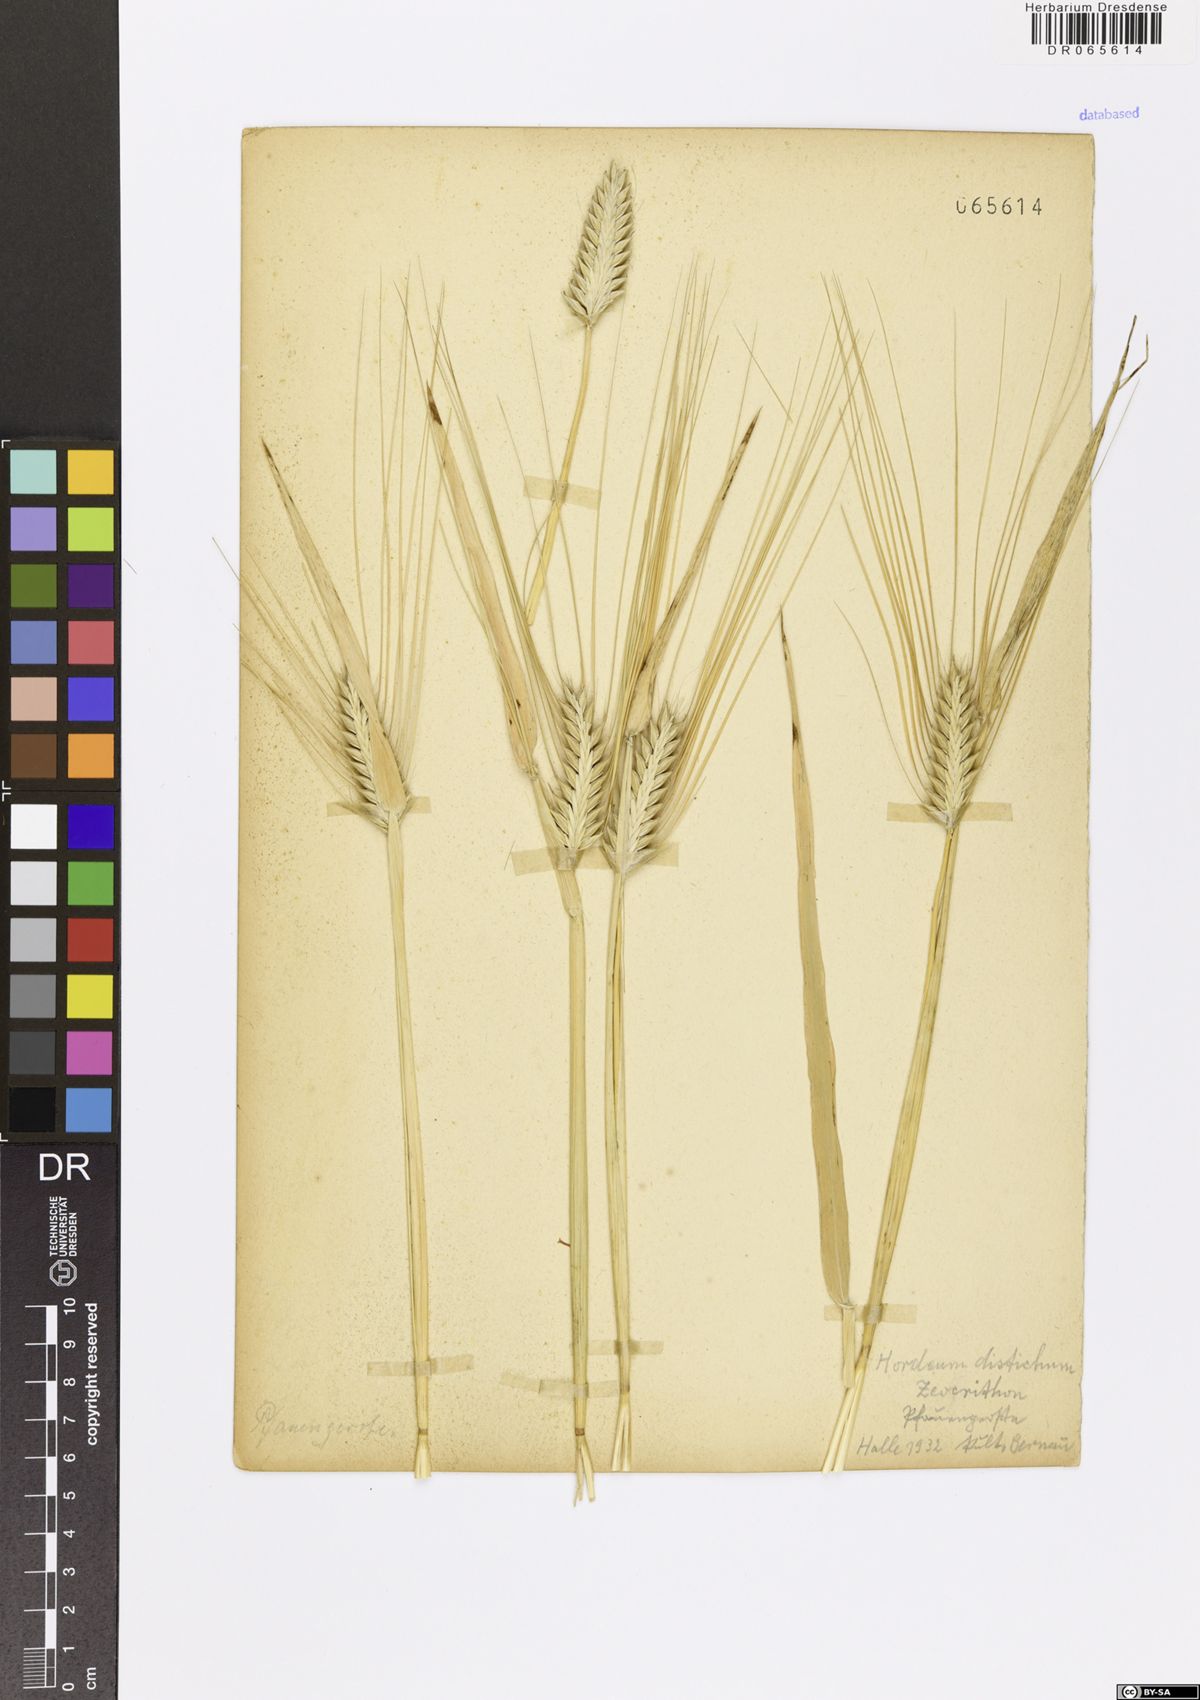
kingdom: Plantae
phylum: Tracheophyta
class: Liliopsida
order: Poales
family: Poaceae
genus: Hordeum
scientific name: Hordeum distichon
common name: Two-rowed barley
